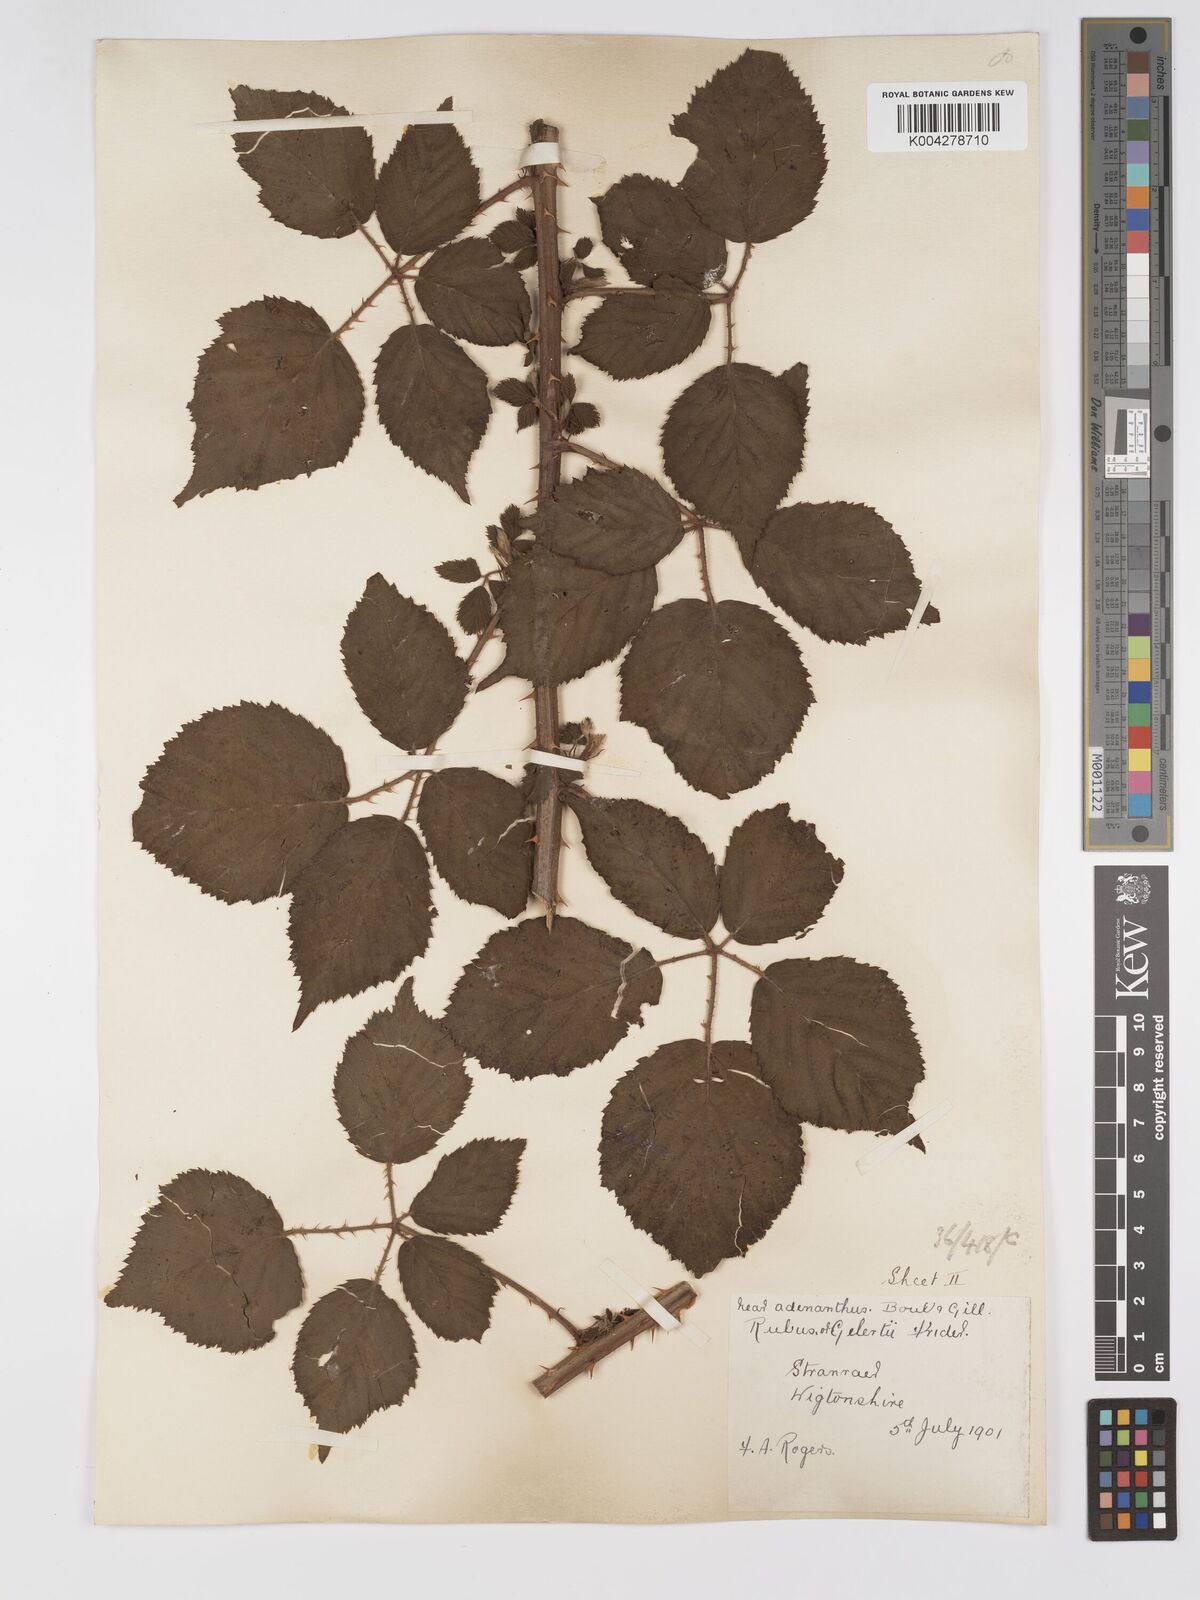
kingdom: Plantae
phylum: Tracheophyta
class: Magnoliopsida
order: Rosales
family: Rosaceae
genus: Rubus
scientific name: Rubus swinhoei
